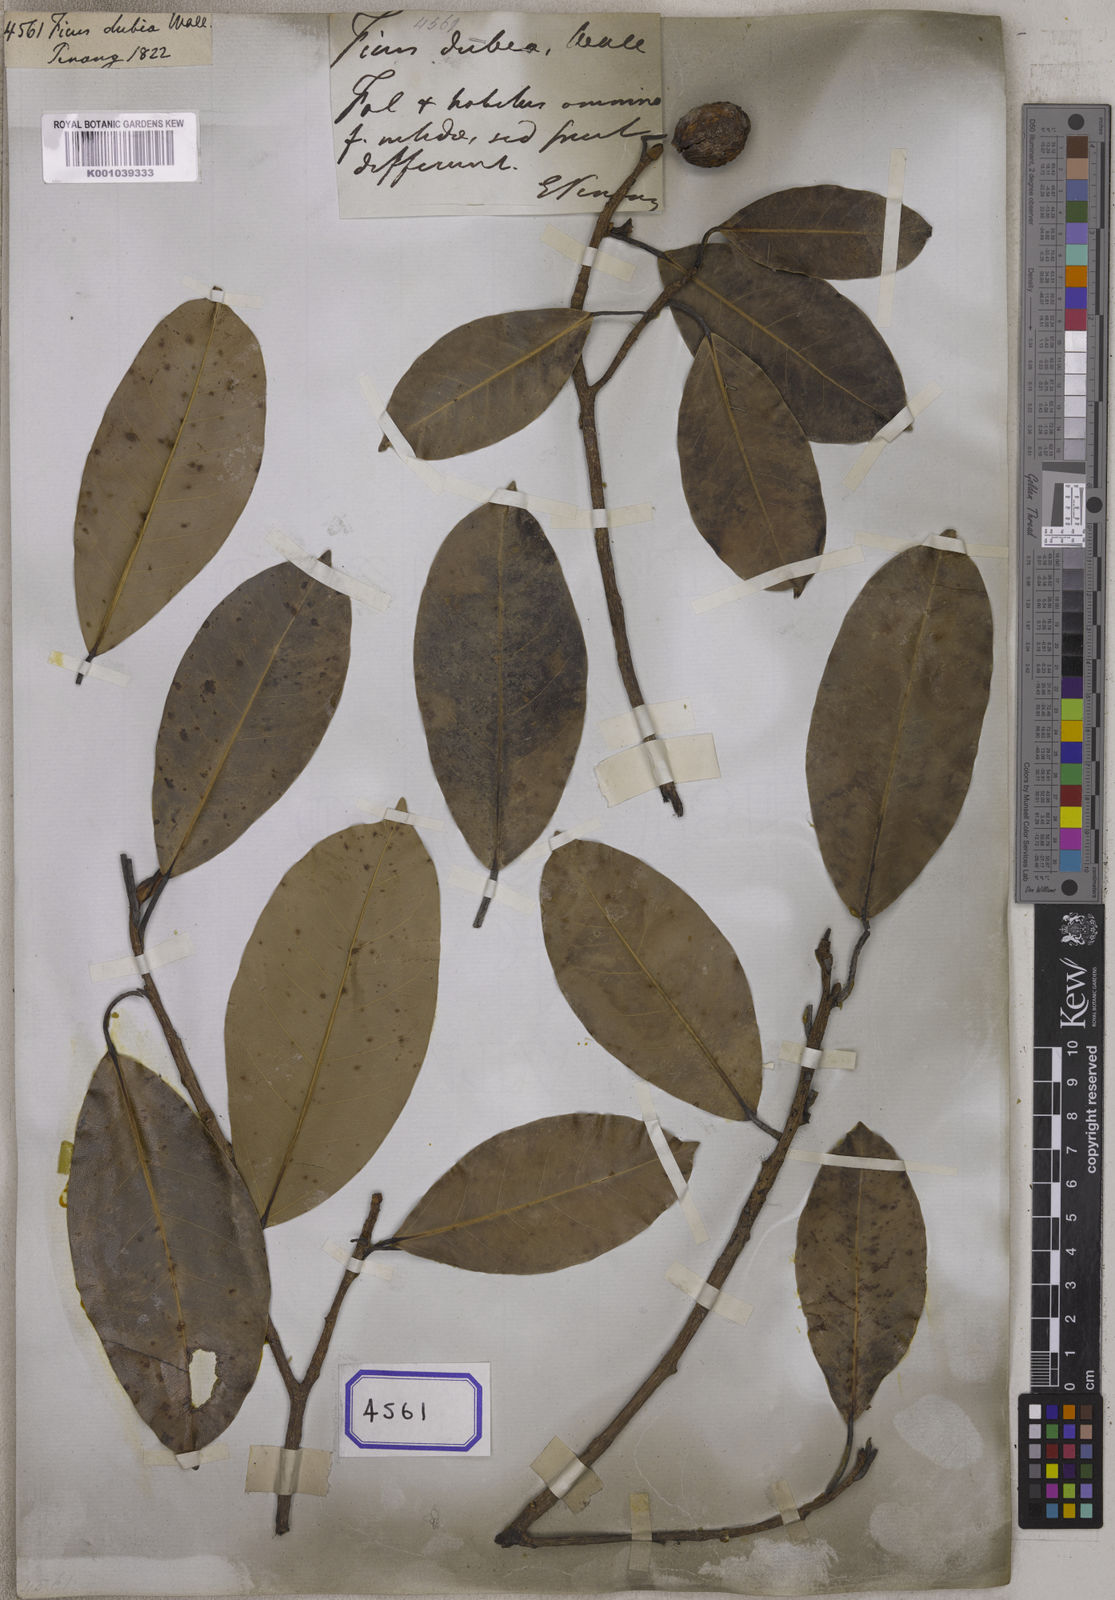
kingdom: Plantae
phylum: Tracheophyta
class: Magnoliopsida
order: Rosales
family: Moraceae
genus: Ficus
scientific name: Ficus
